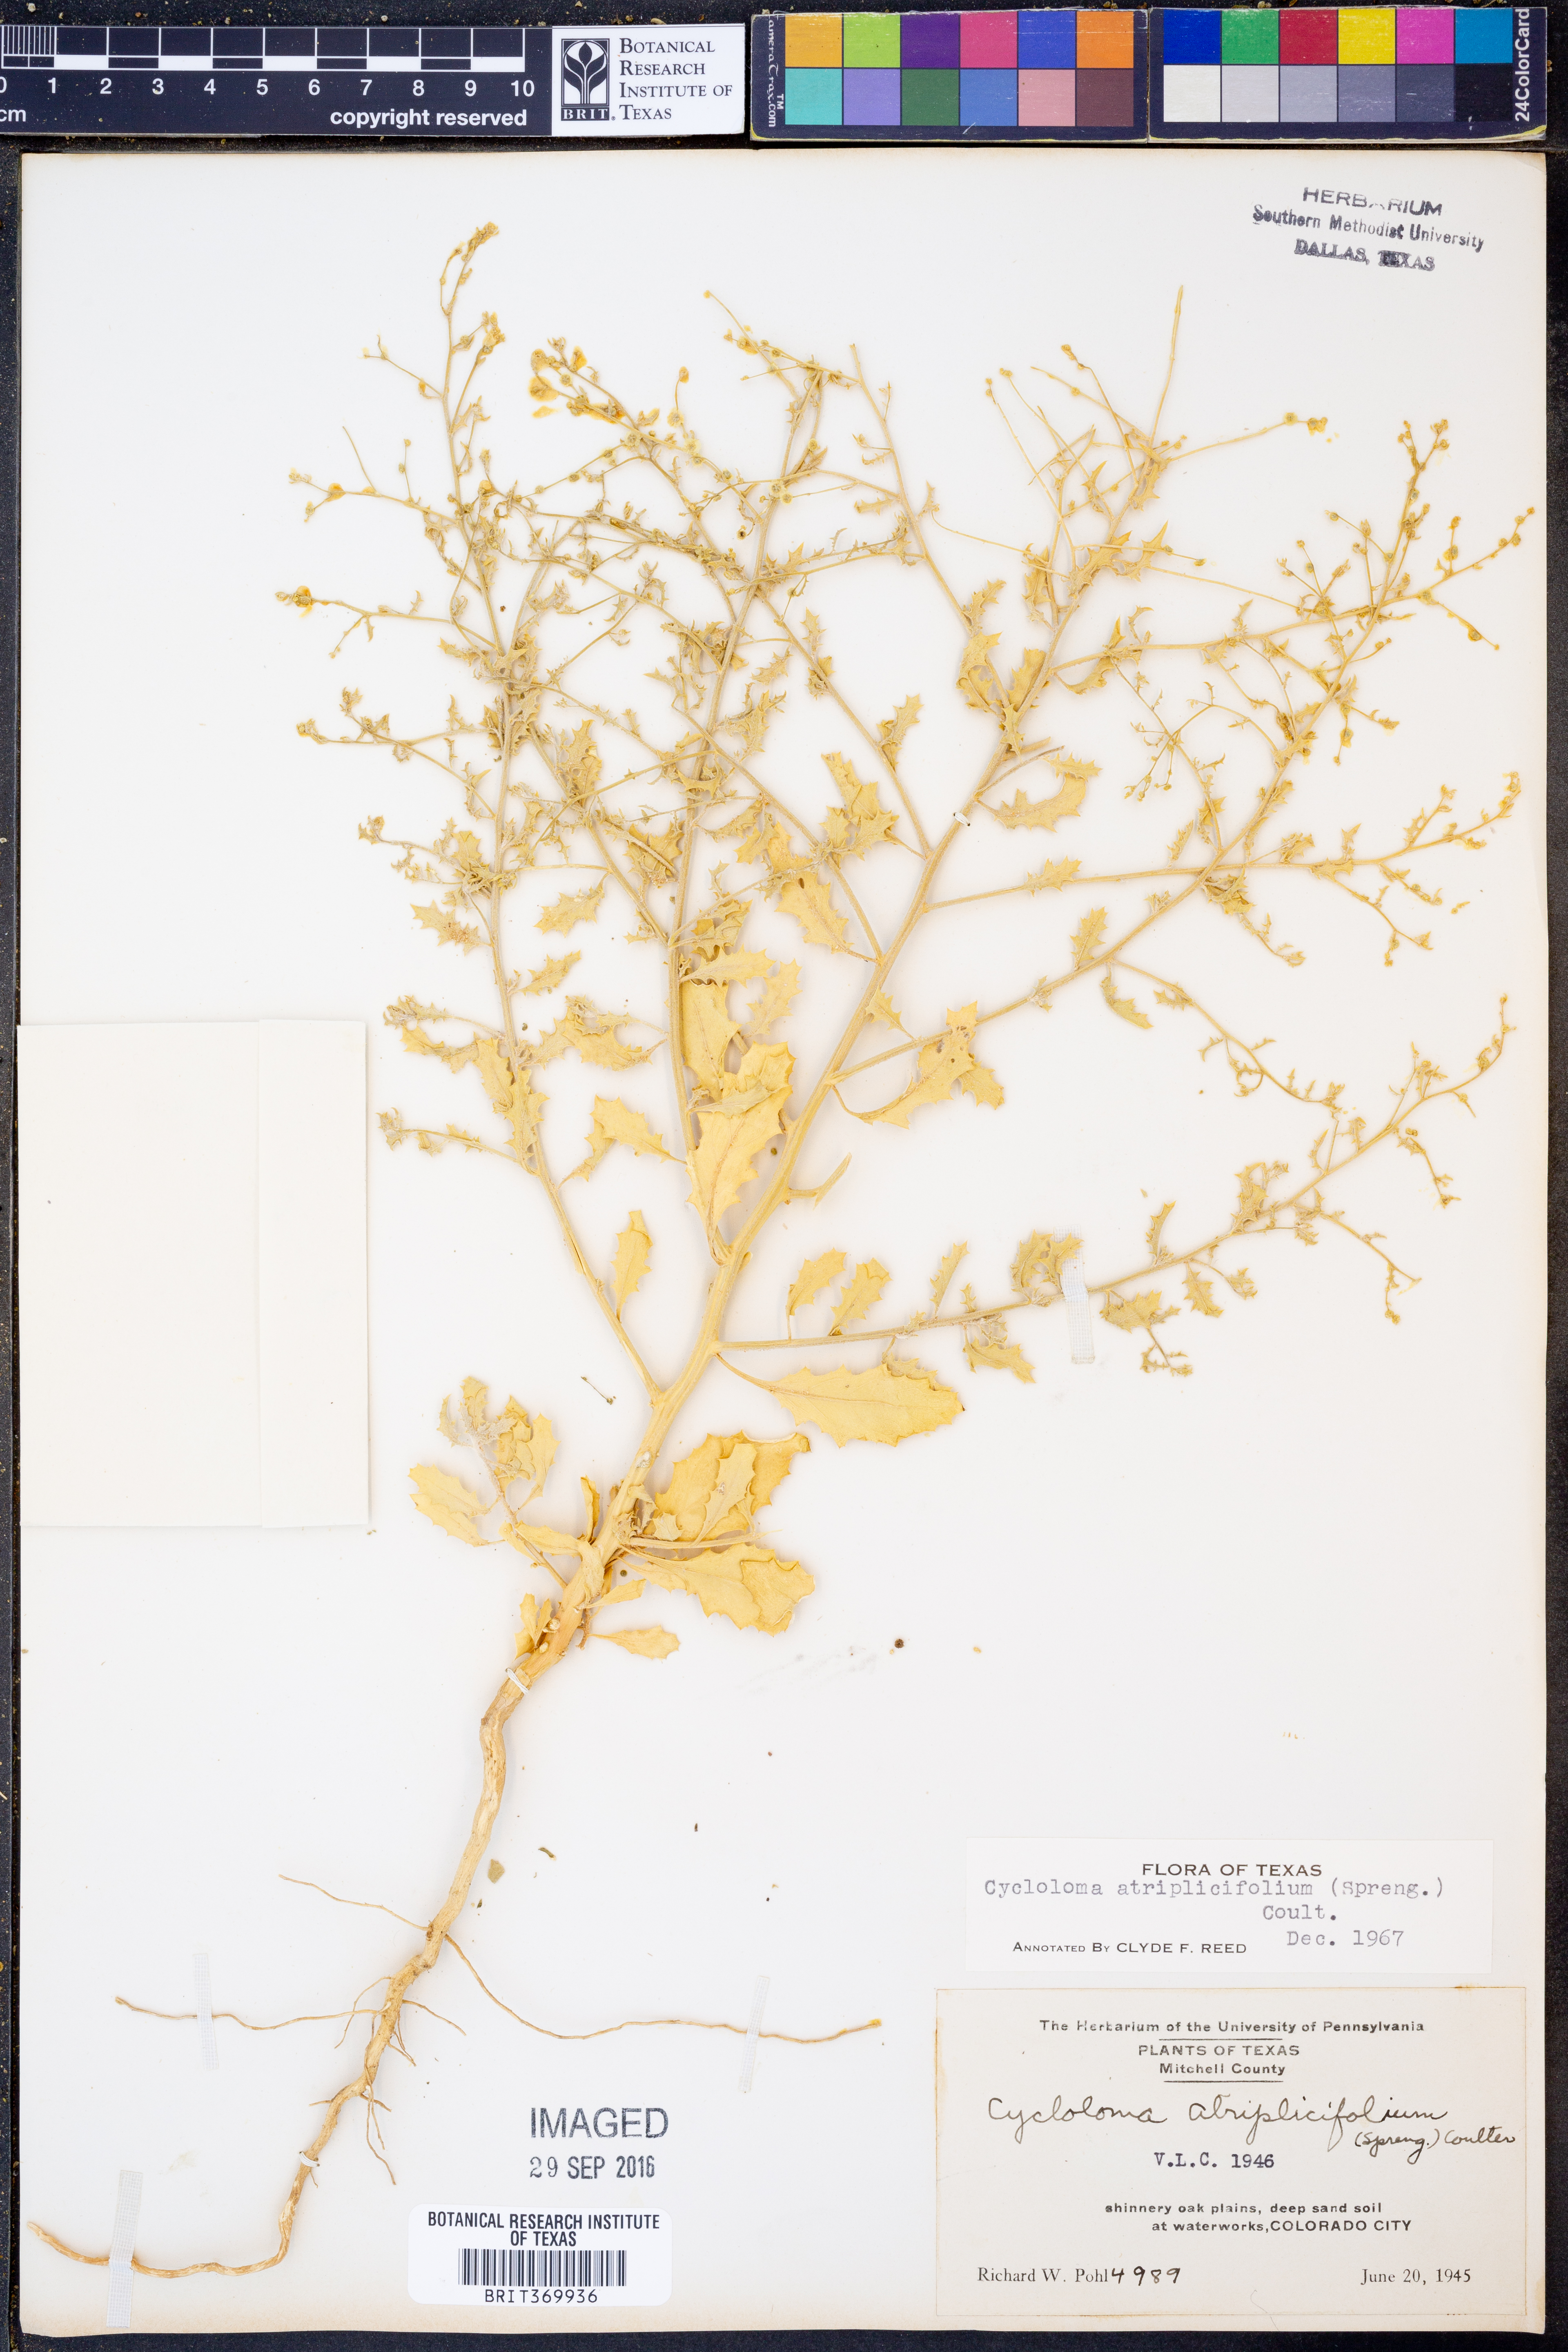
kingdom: Plantae
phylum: Tracheophyta
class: Magnoliopsida
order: Caryophyllales
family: Amaranthaceae
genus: Dysphania
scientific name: Dysphania atriplicifolia
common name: Plains tumbleweed
